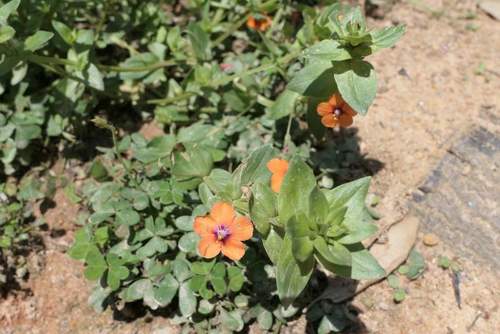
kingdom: Plantae
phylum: Tracheophyta
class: Magnoliopsida
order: Ericales
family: Primulaceae
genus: Lysimachia
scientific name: Lysimachia arvensis
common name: Scarlet pimpernel
